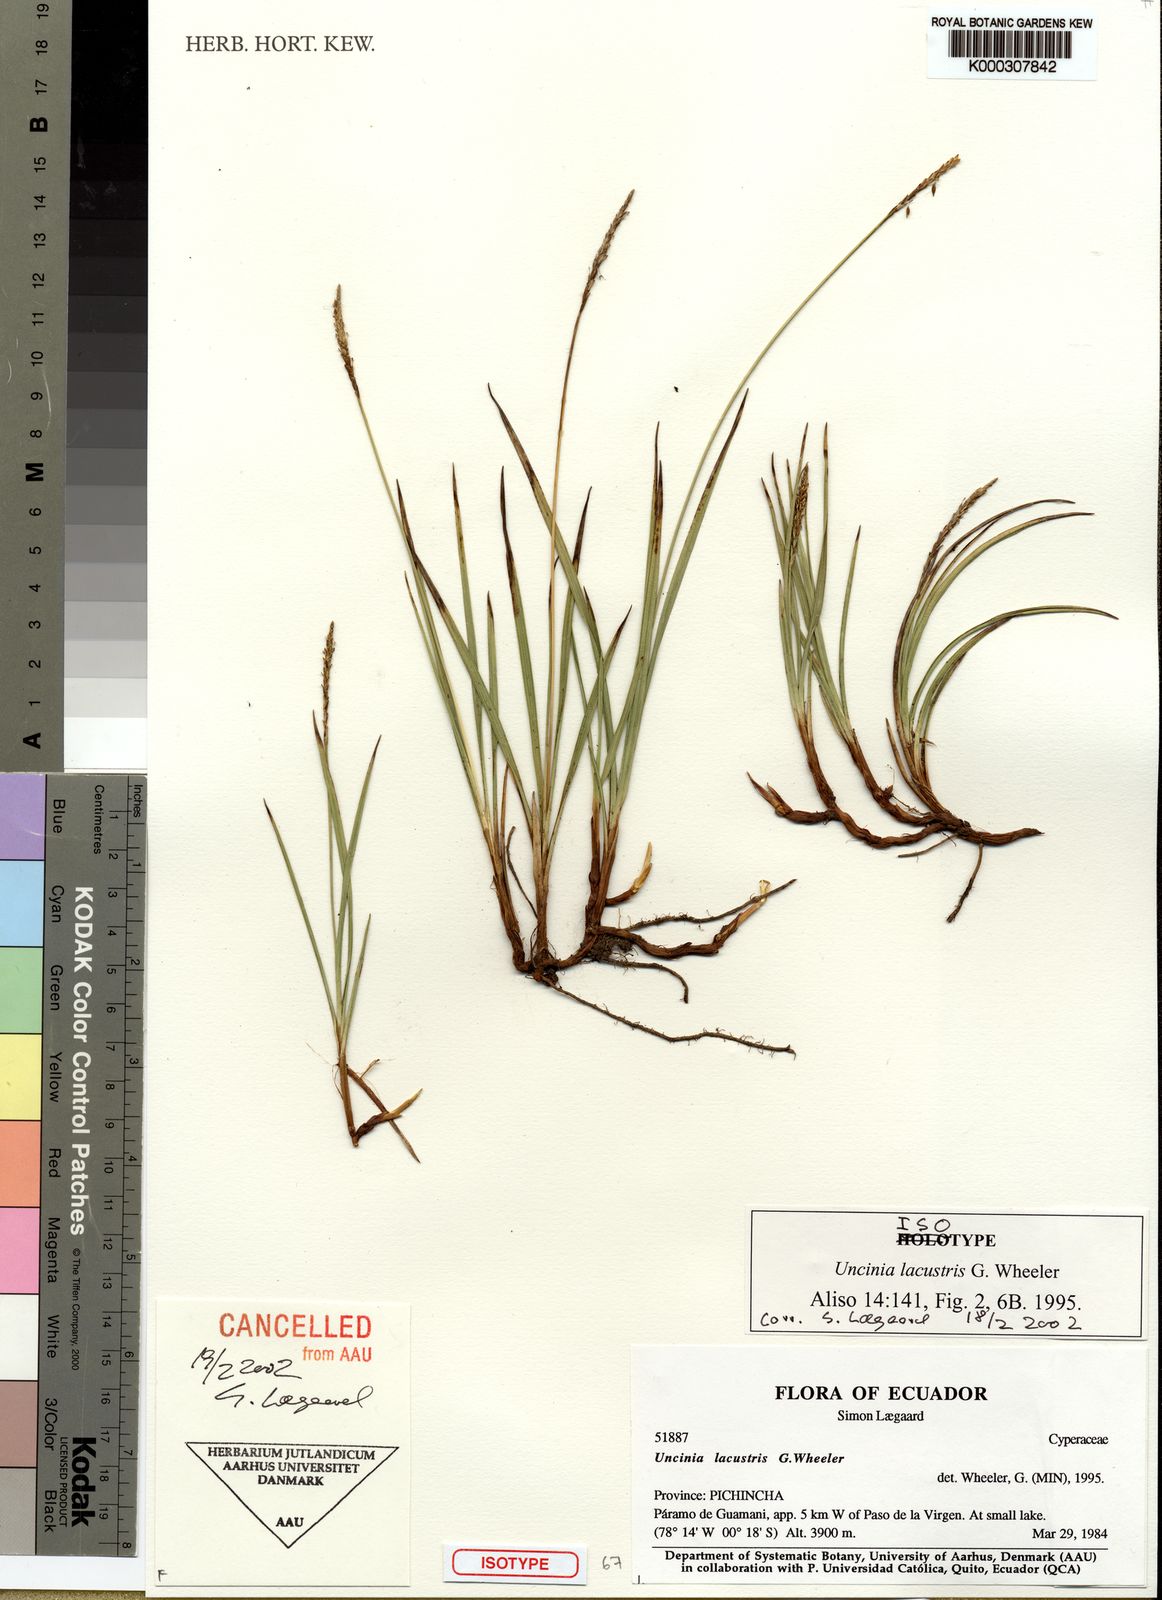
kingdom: Plantae
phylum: Tracheophyta
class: Liliopsida
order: Poales
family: Cyperaceae
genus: Carex
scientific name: Carex madida
